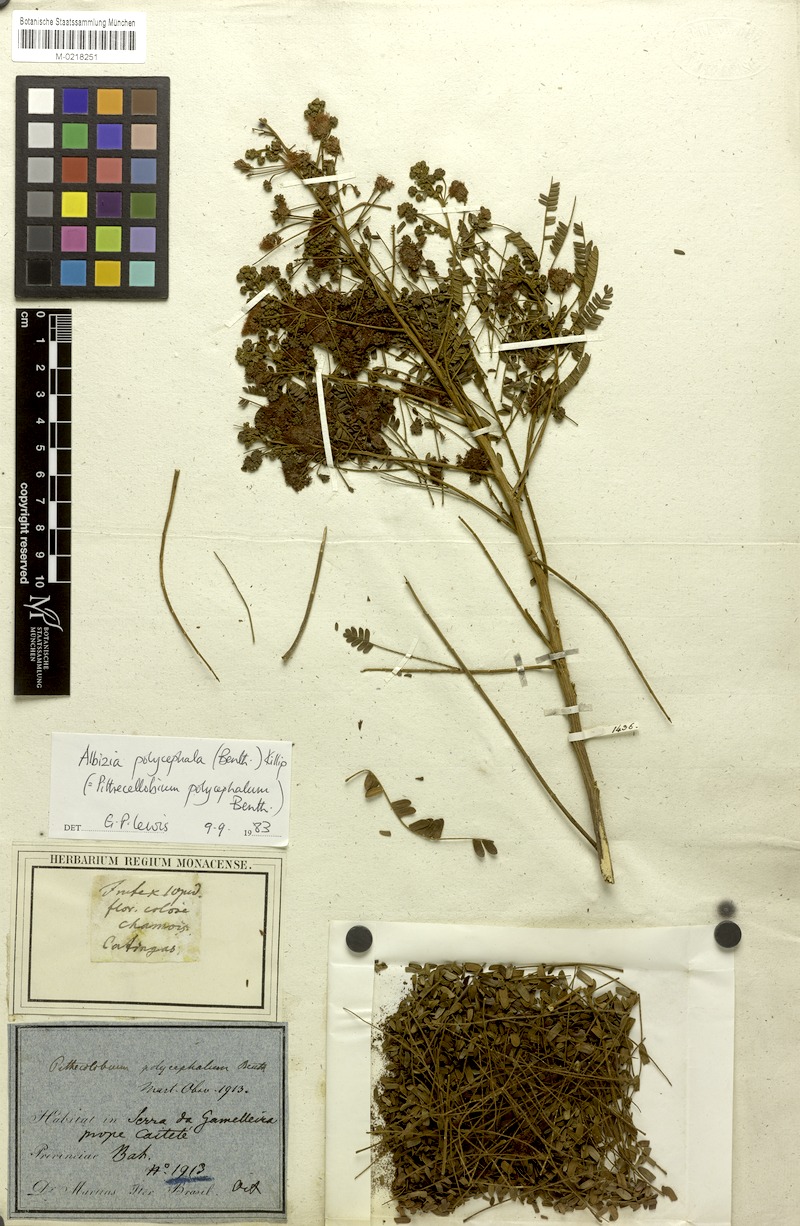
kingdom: Plantae
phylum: Tracheophyta
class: Magnoliopsida
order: Fabales
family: Fabaceae
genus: Albizia
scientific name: Albizia polycephala
